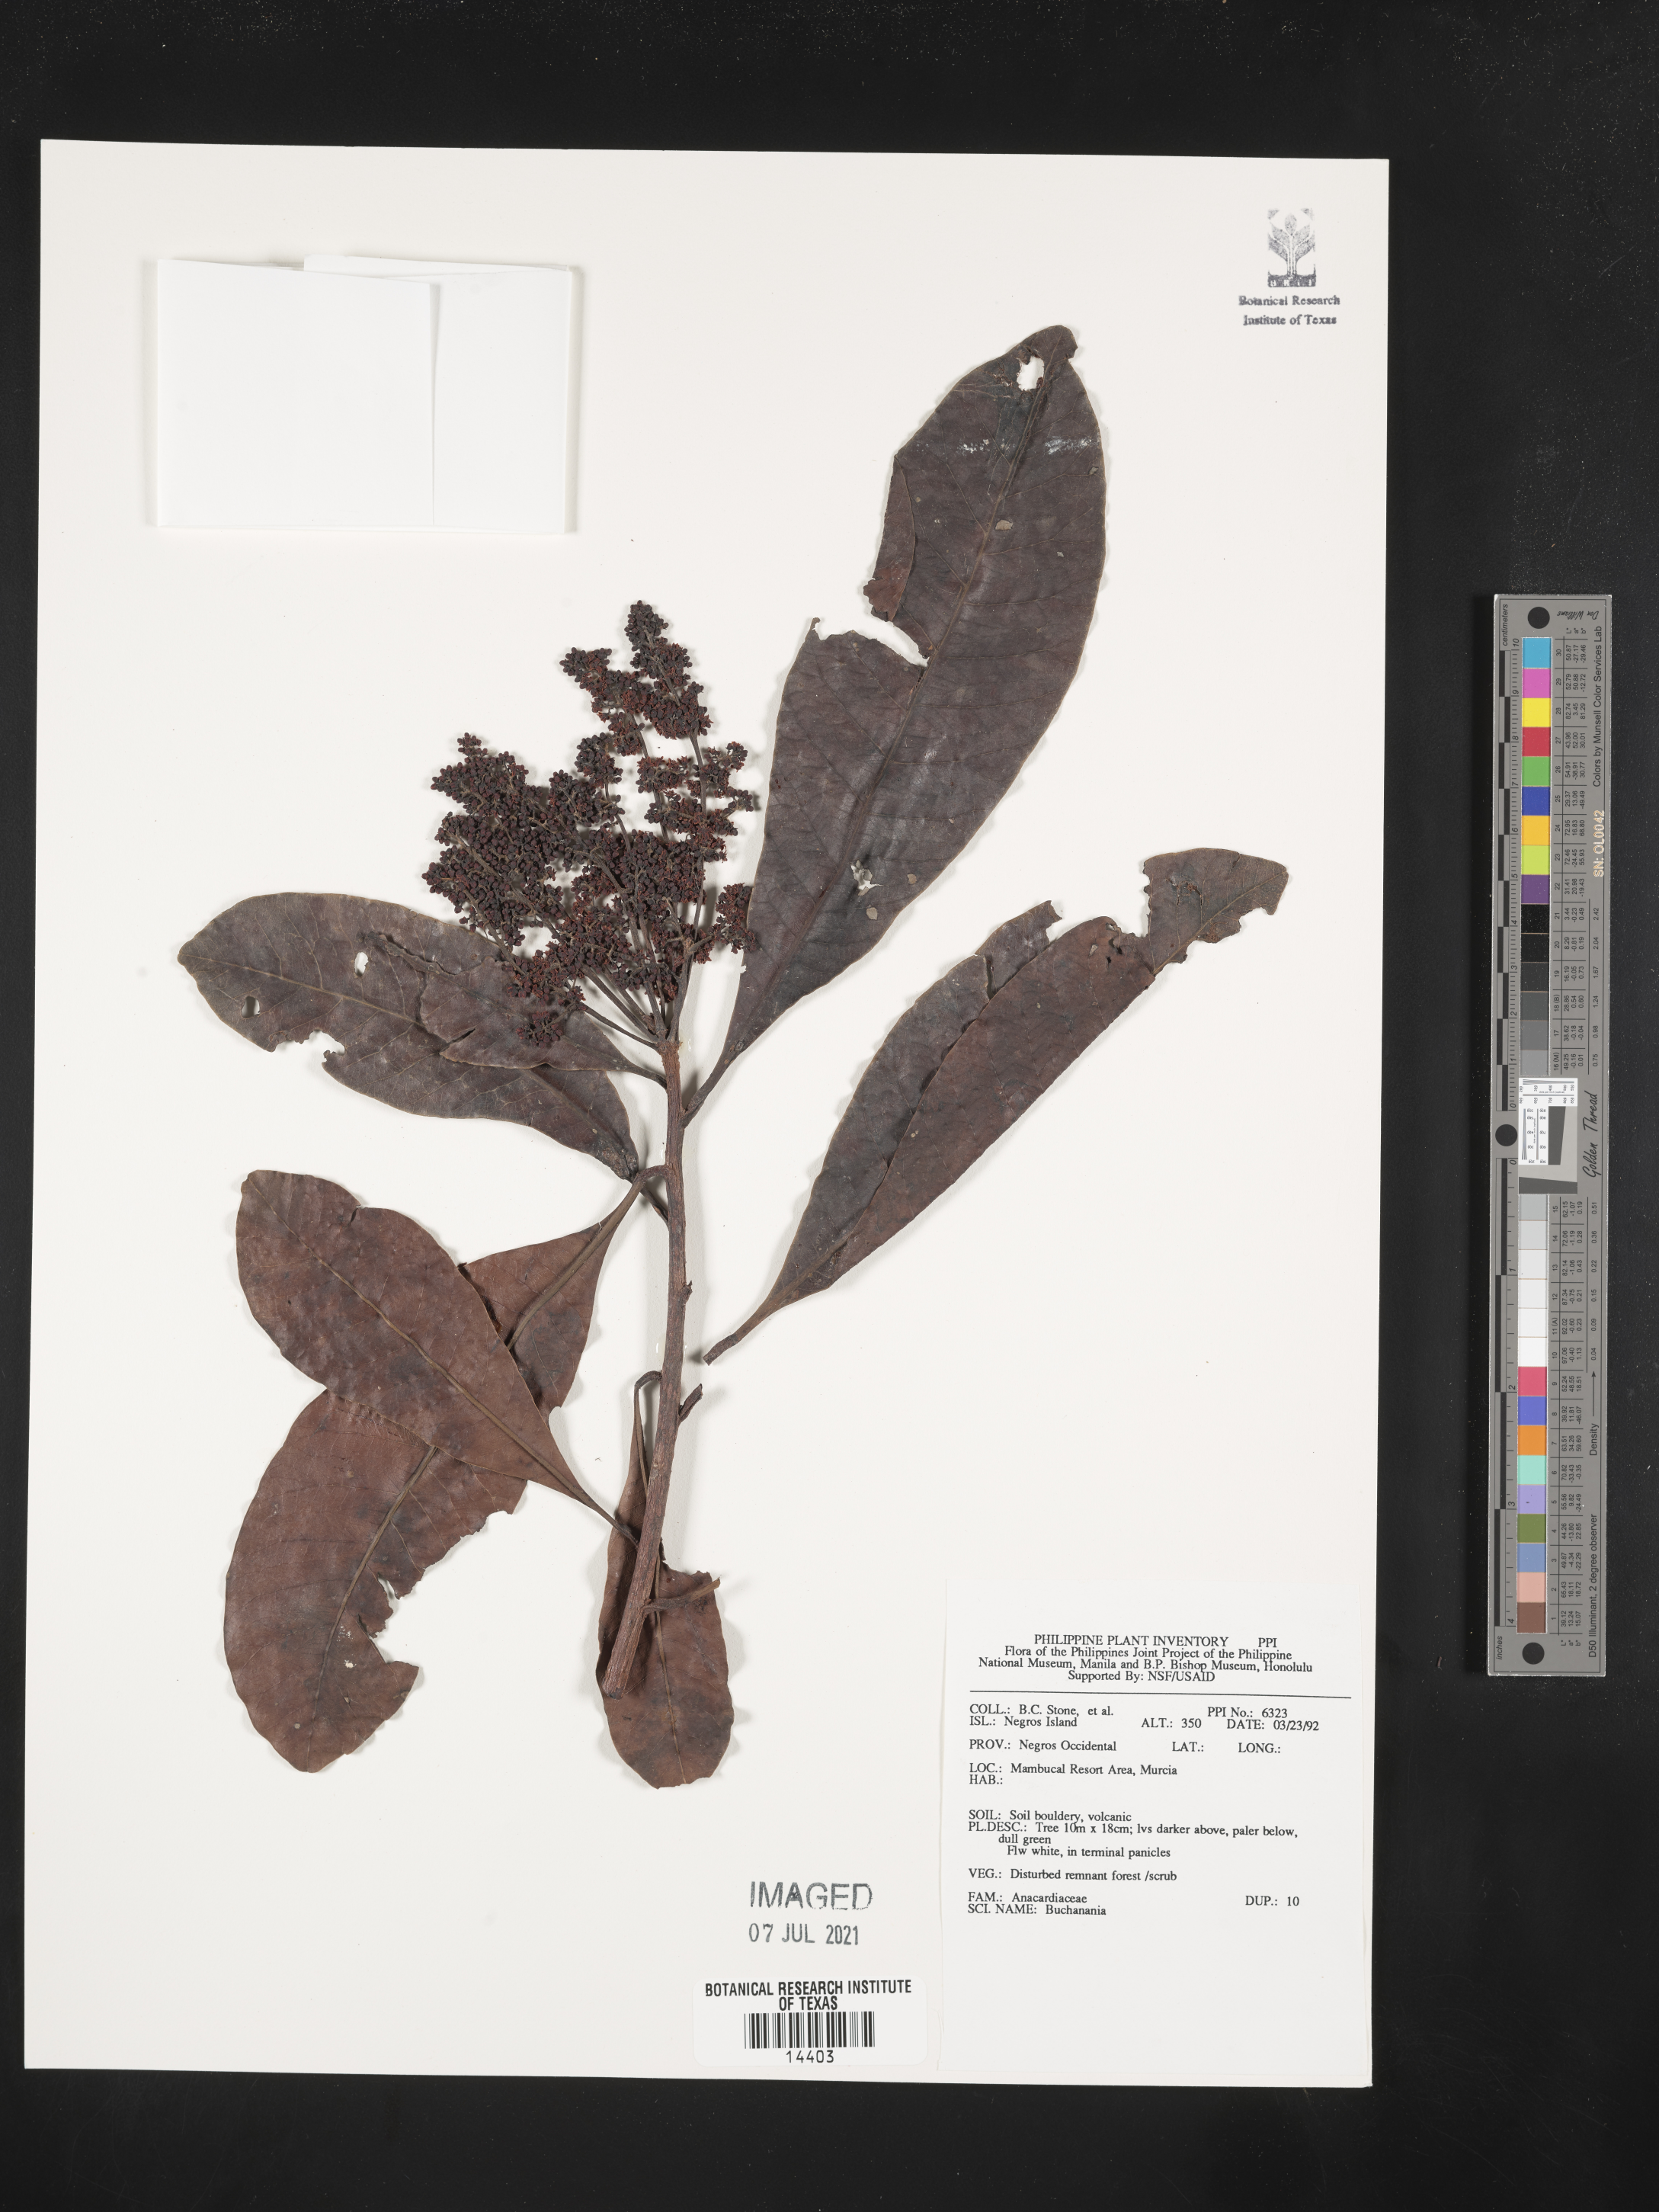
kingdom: Plantae
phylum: Tracheophyta
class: Magnoliopsida
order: Sapindales
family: Anacardiaceae
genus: Buchanania
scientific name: Buchanania
